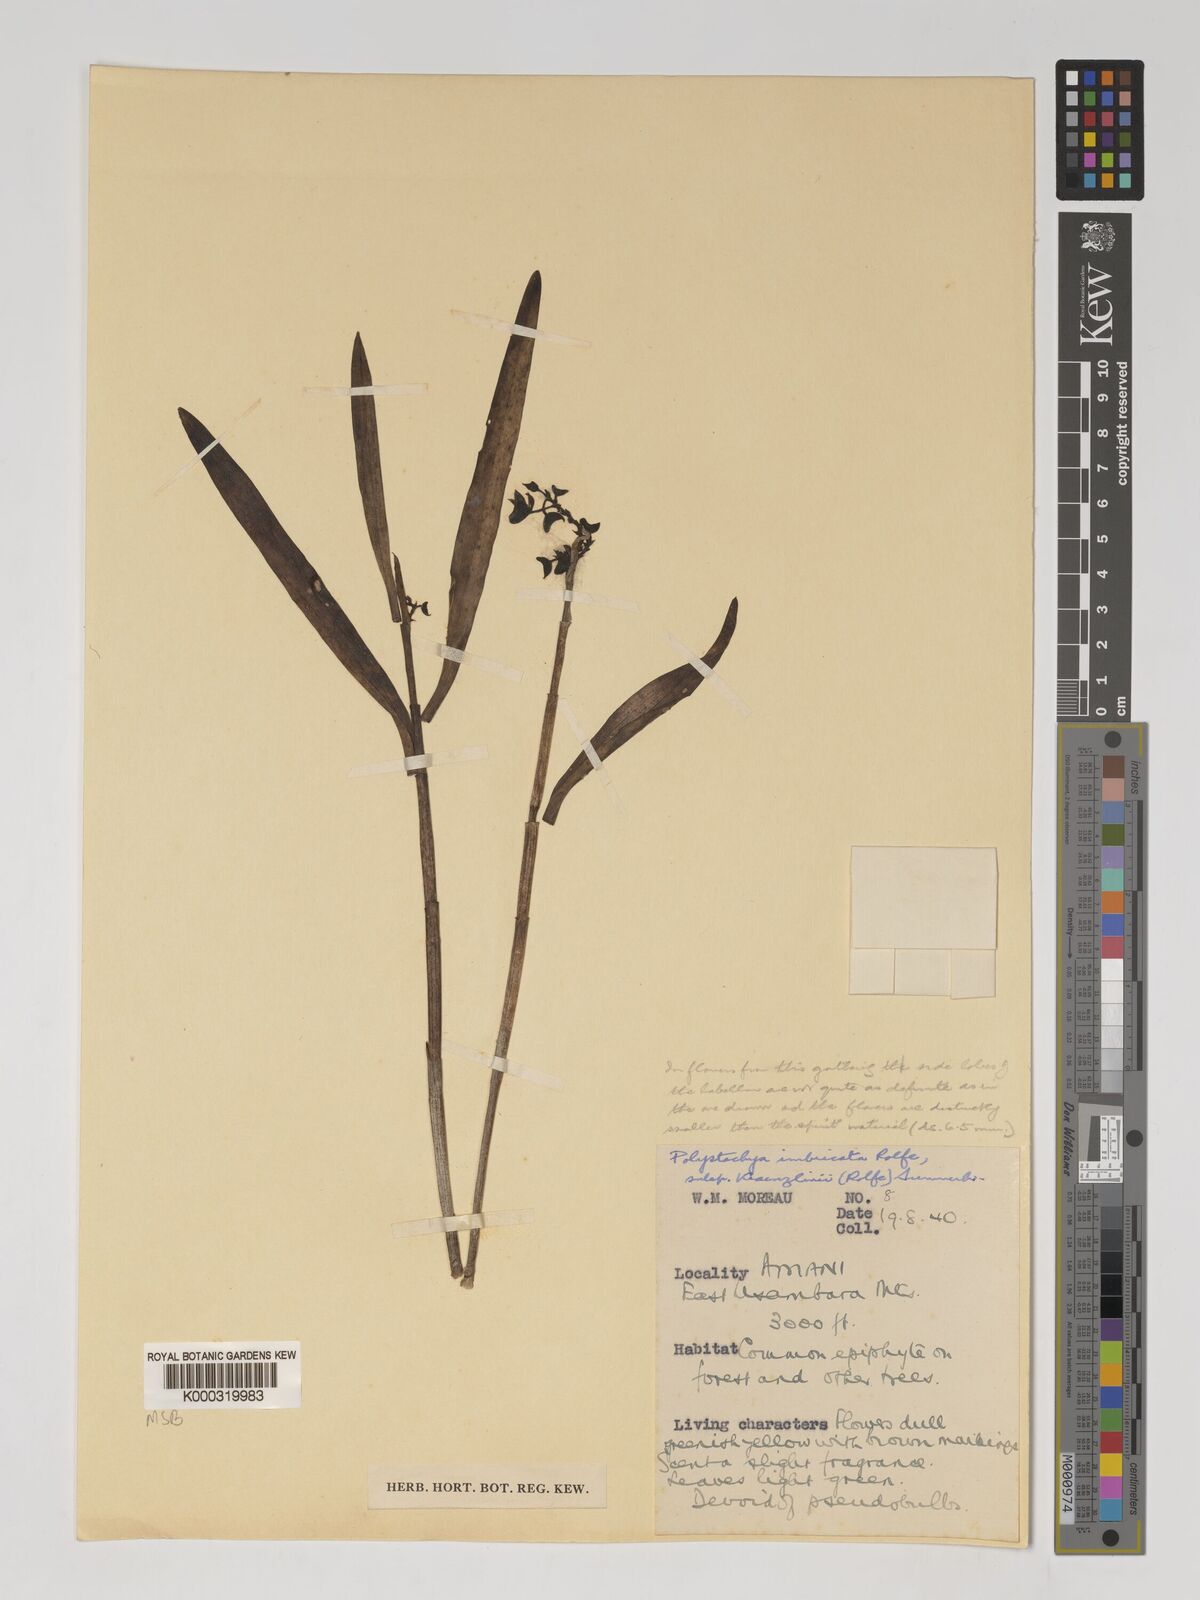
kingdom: Plantae
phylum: Tracheophyta
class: Liliopsida
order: Asparagales
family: Orchidaceae
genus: Polystachya
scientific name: Polystachya albescens
